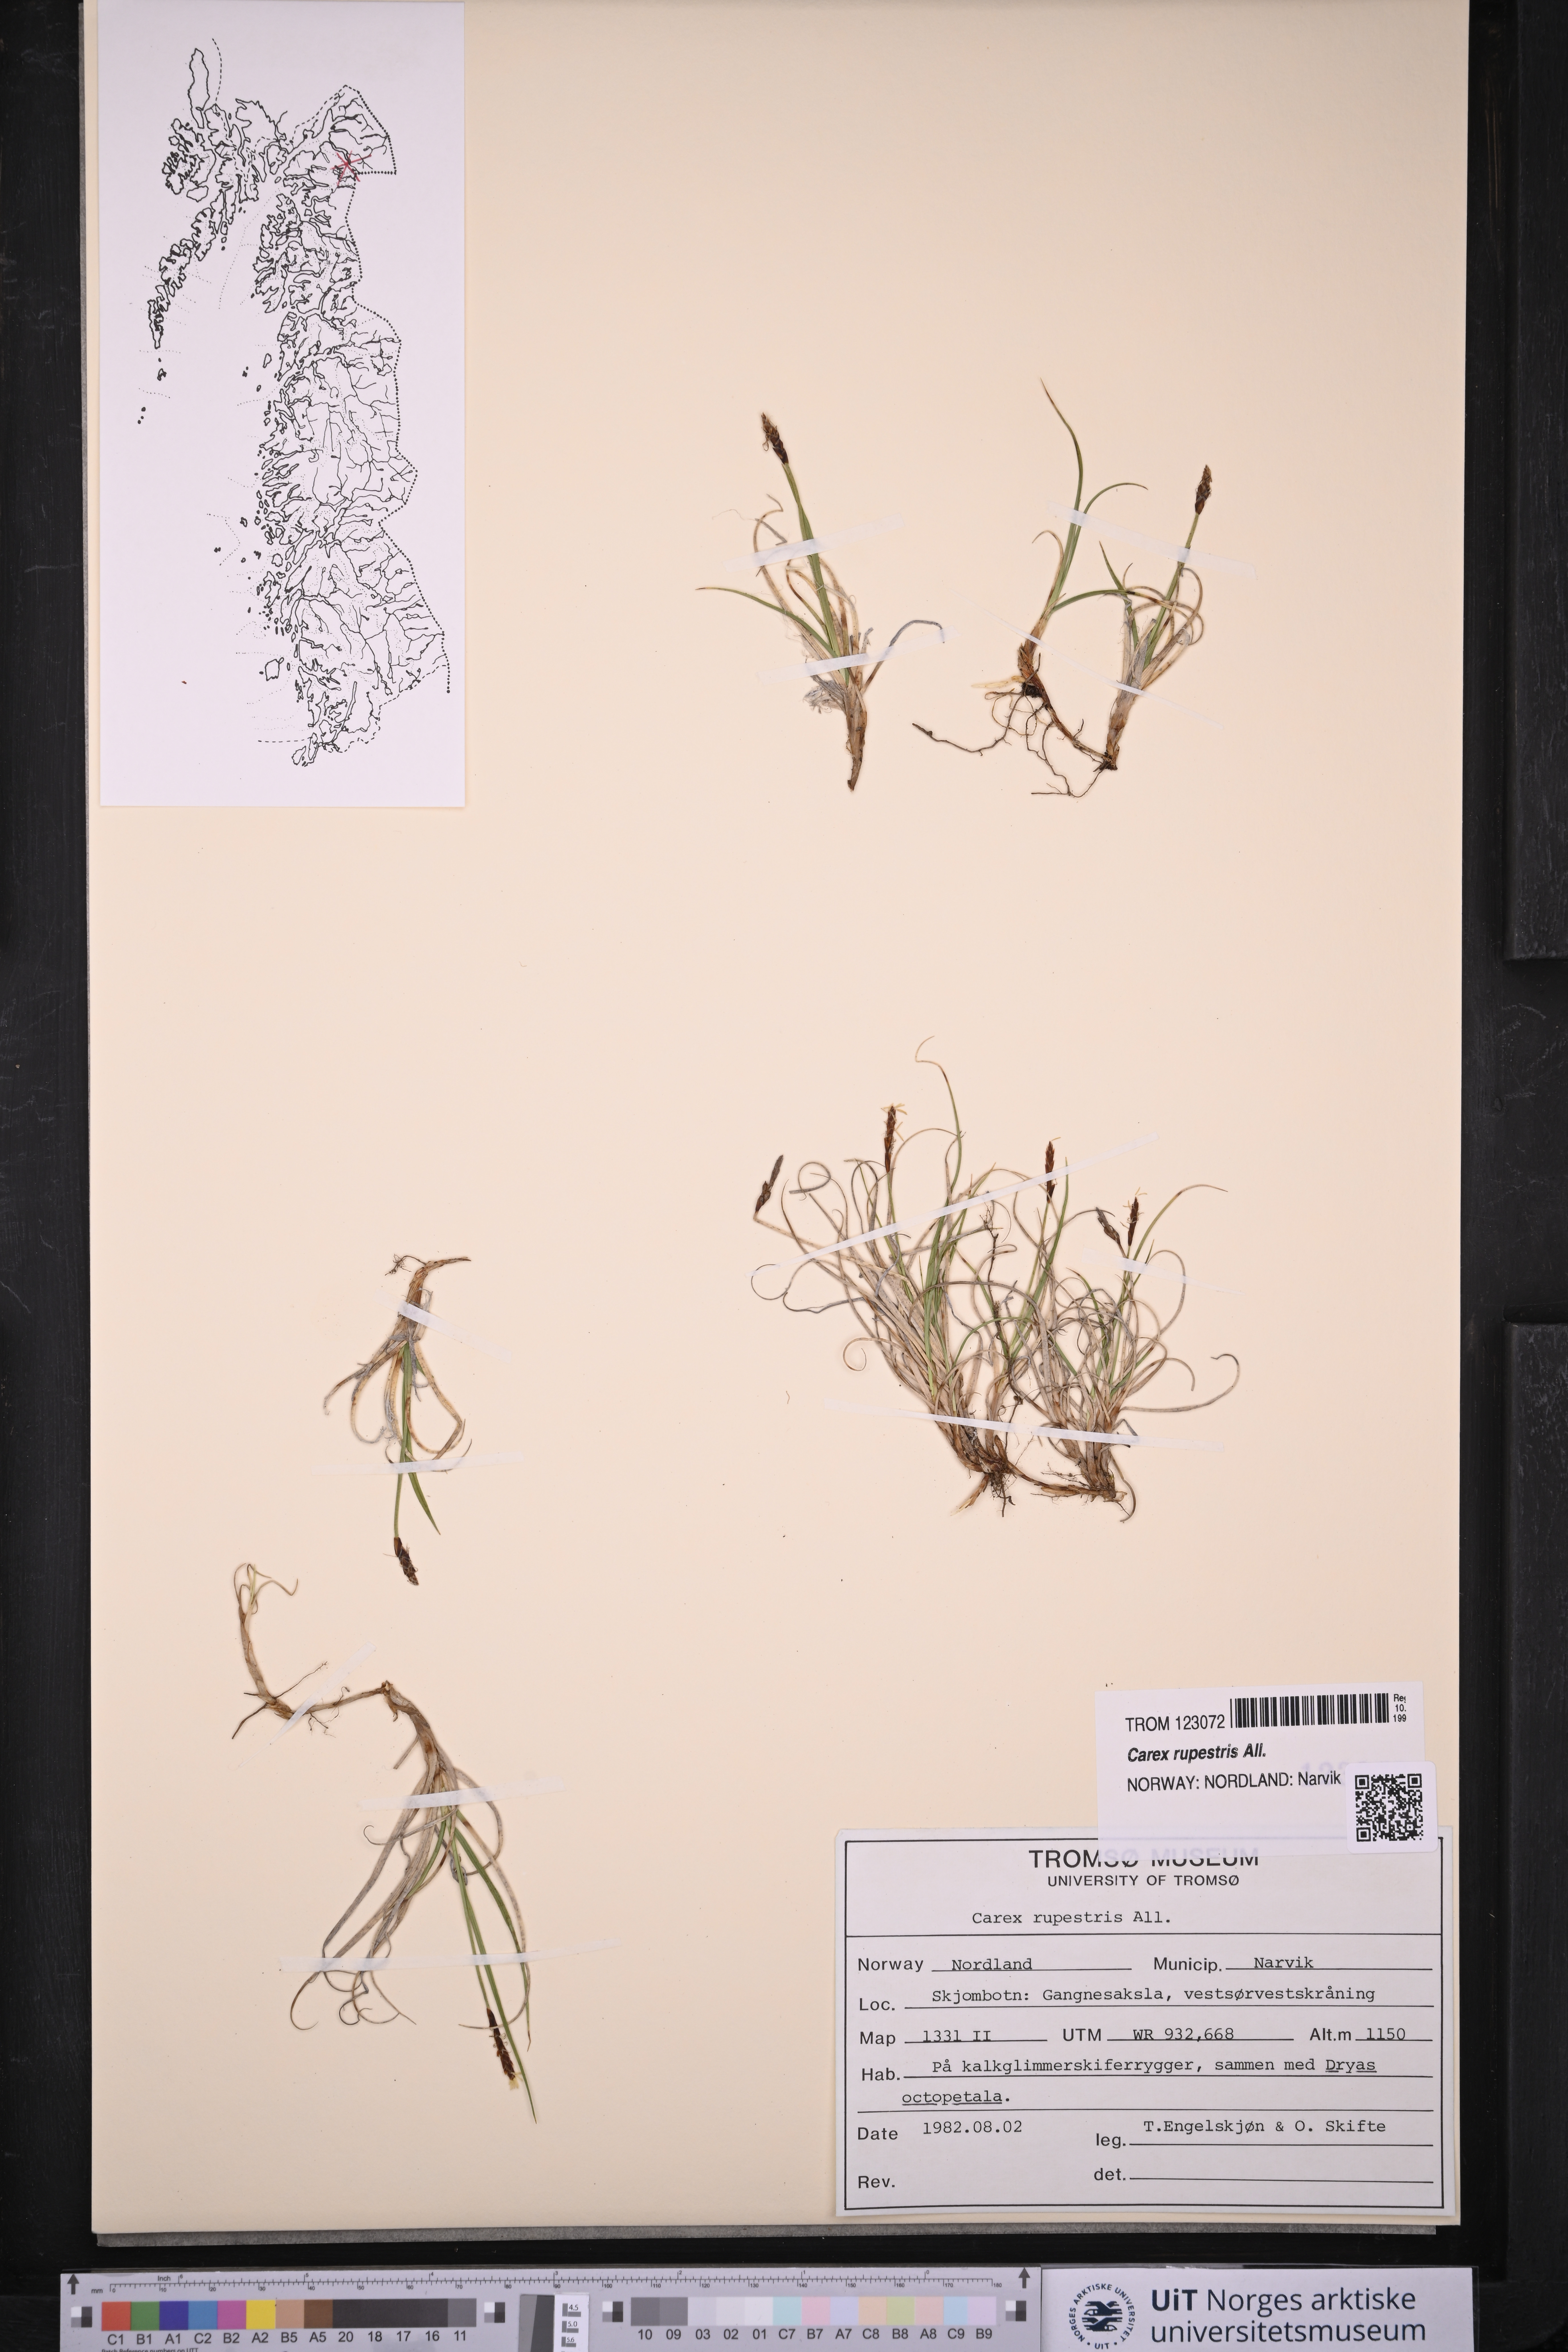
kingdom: Plantae
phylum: Tracheophyta
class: Liliopsida
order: Poales
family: Cyperaceae
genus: Carex
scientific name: Carex rupestris
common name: Rock sedge
